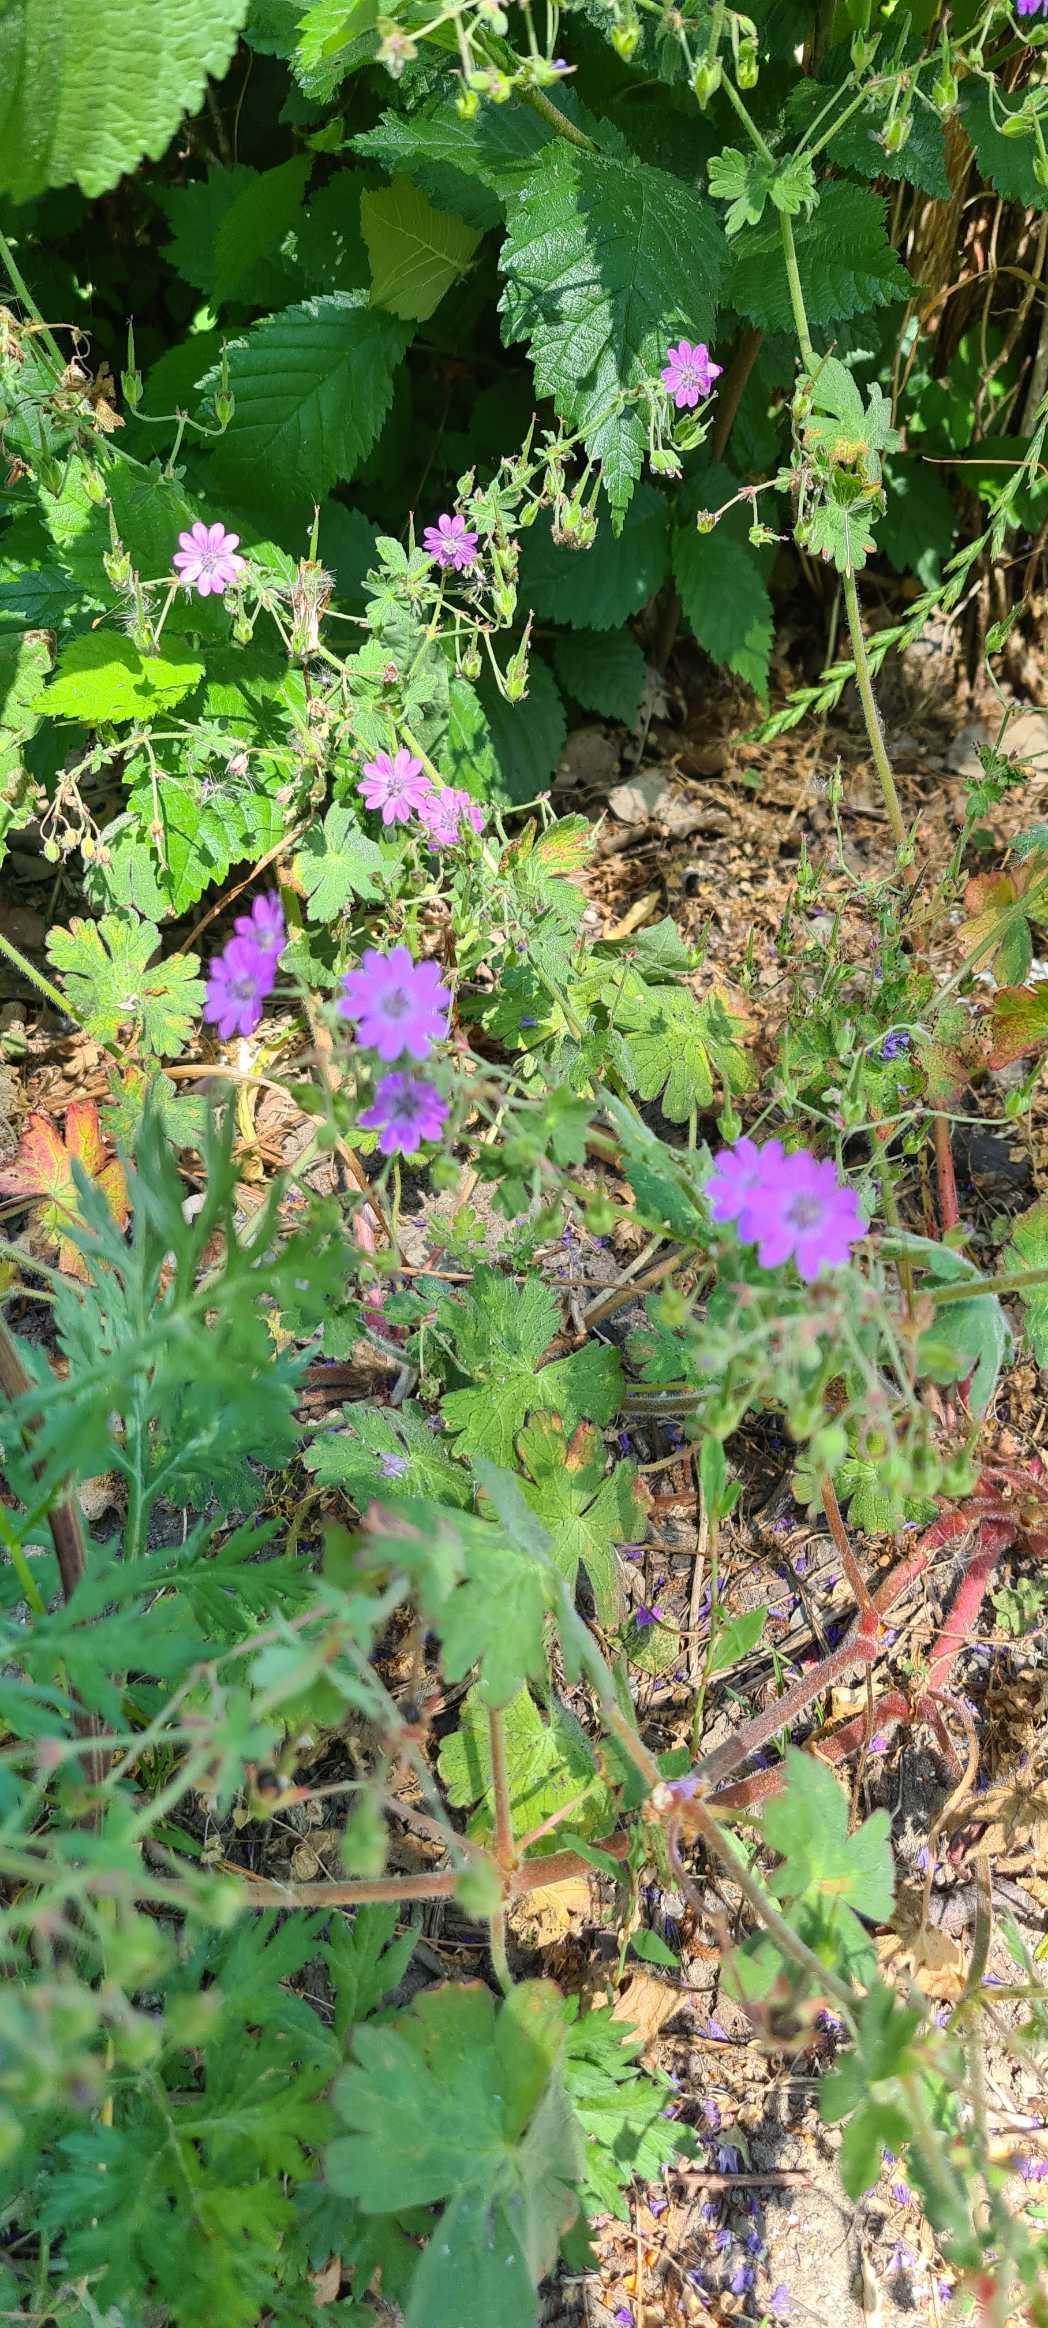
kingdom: Plantae
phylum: Tracheophyta
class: Magnoliopsida
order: Geraniales
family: Geraniaceae
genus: Geranium
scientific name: Geranium pyrenaicum
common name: Pyrenæisk storkenæb
